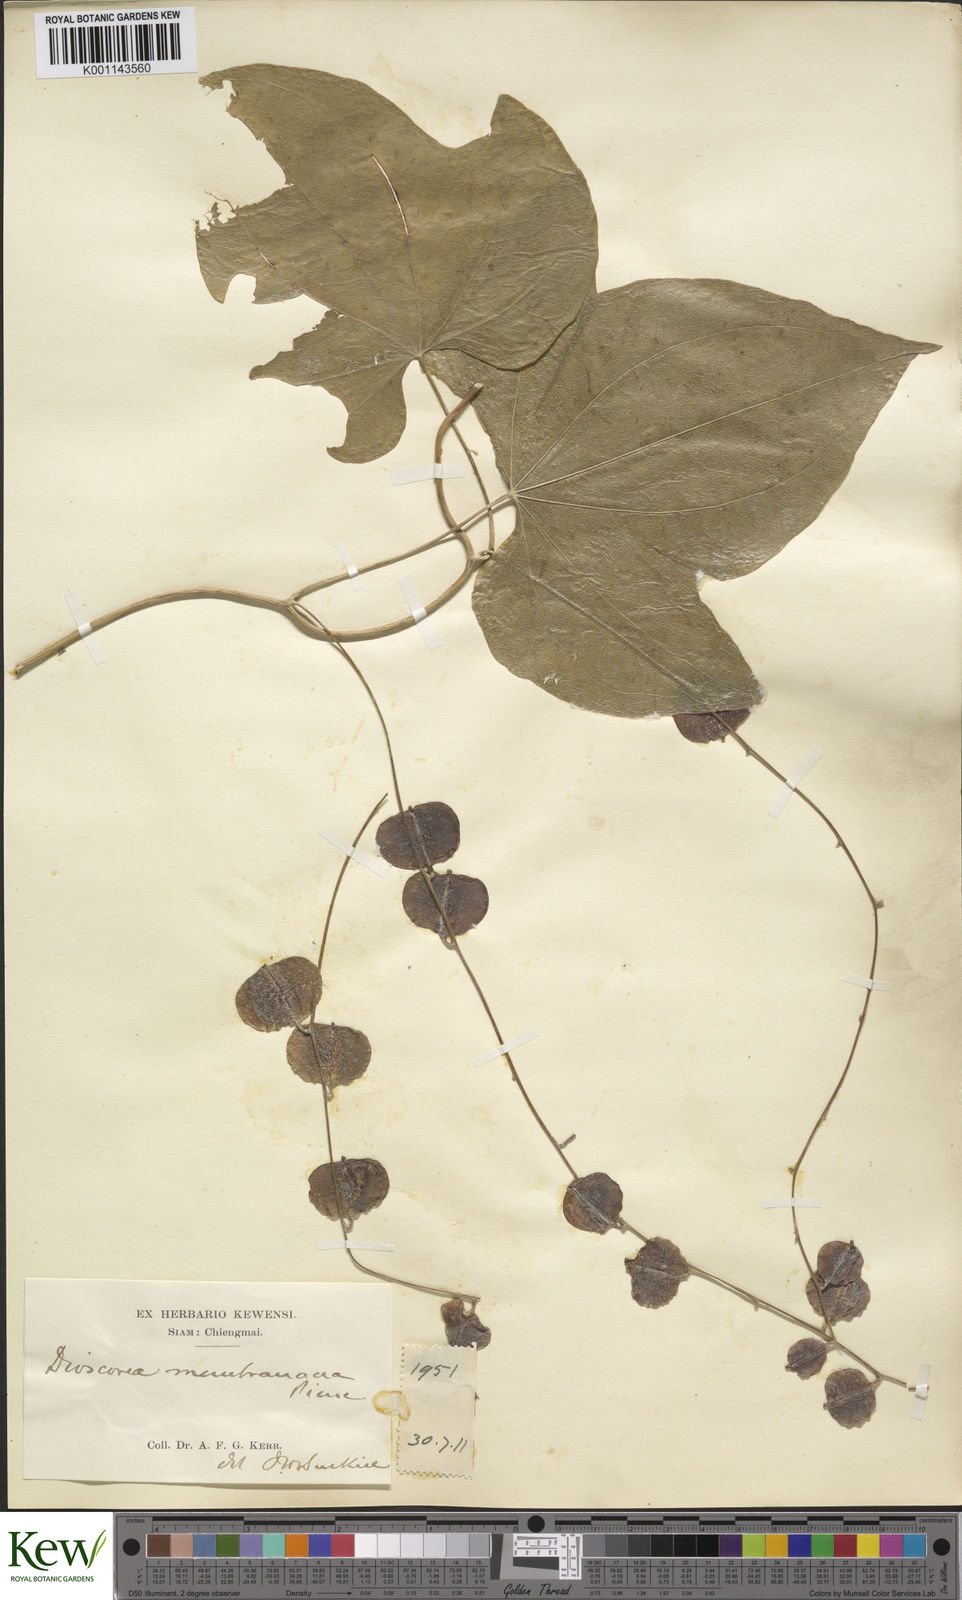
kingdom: Plantae
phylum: Tracheophyta
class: Liliopsida
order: Dioscoreales
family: Dioscoreaceae
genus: Dioscorea
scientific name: Dioscorea membranacea
